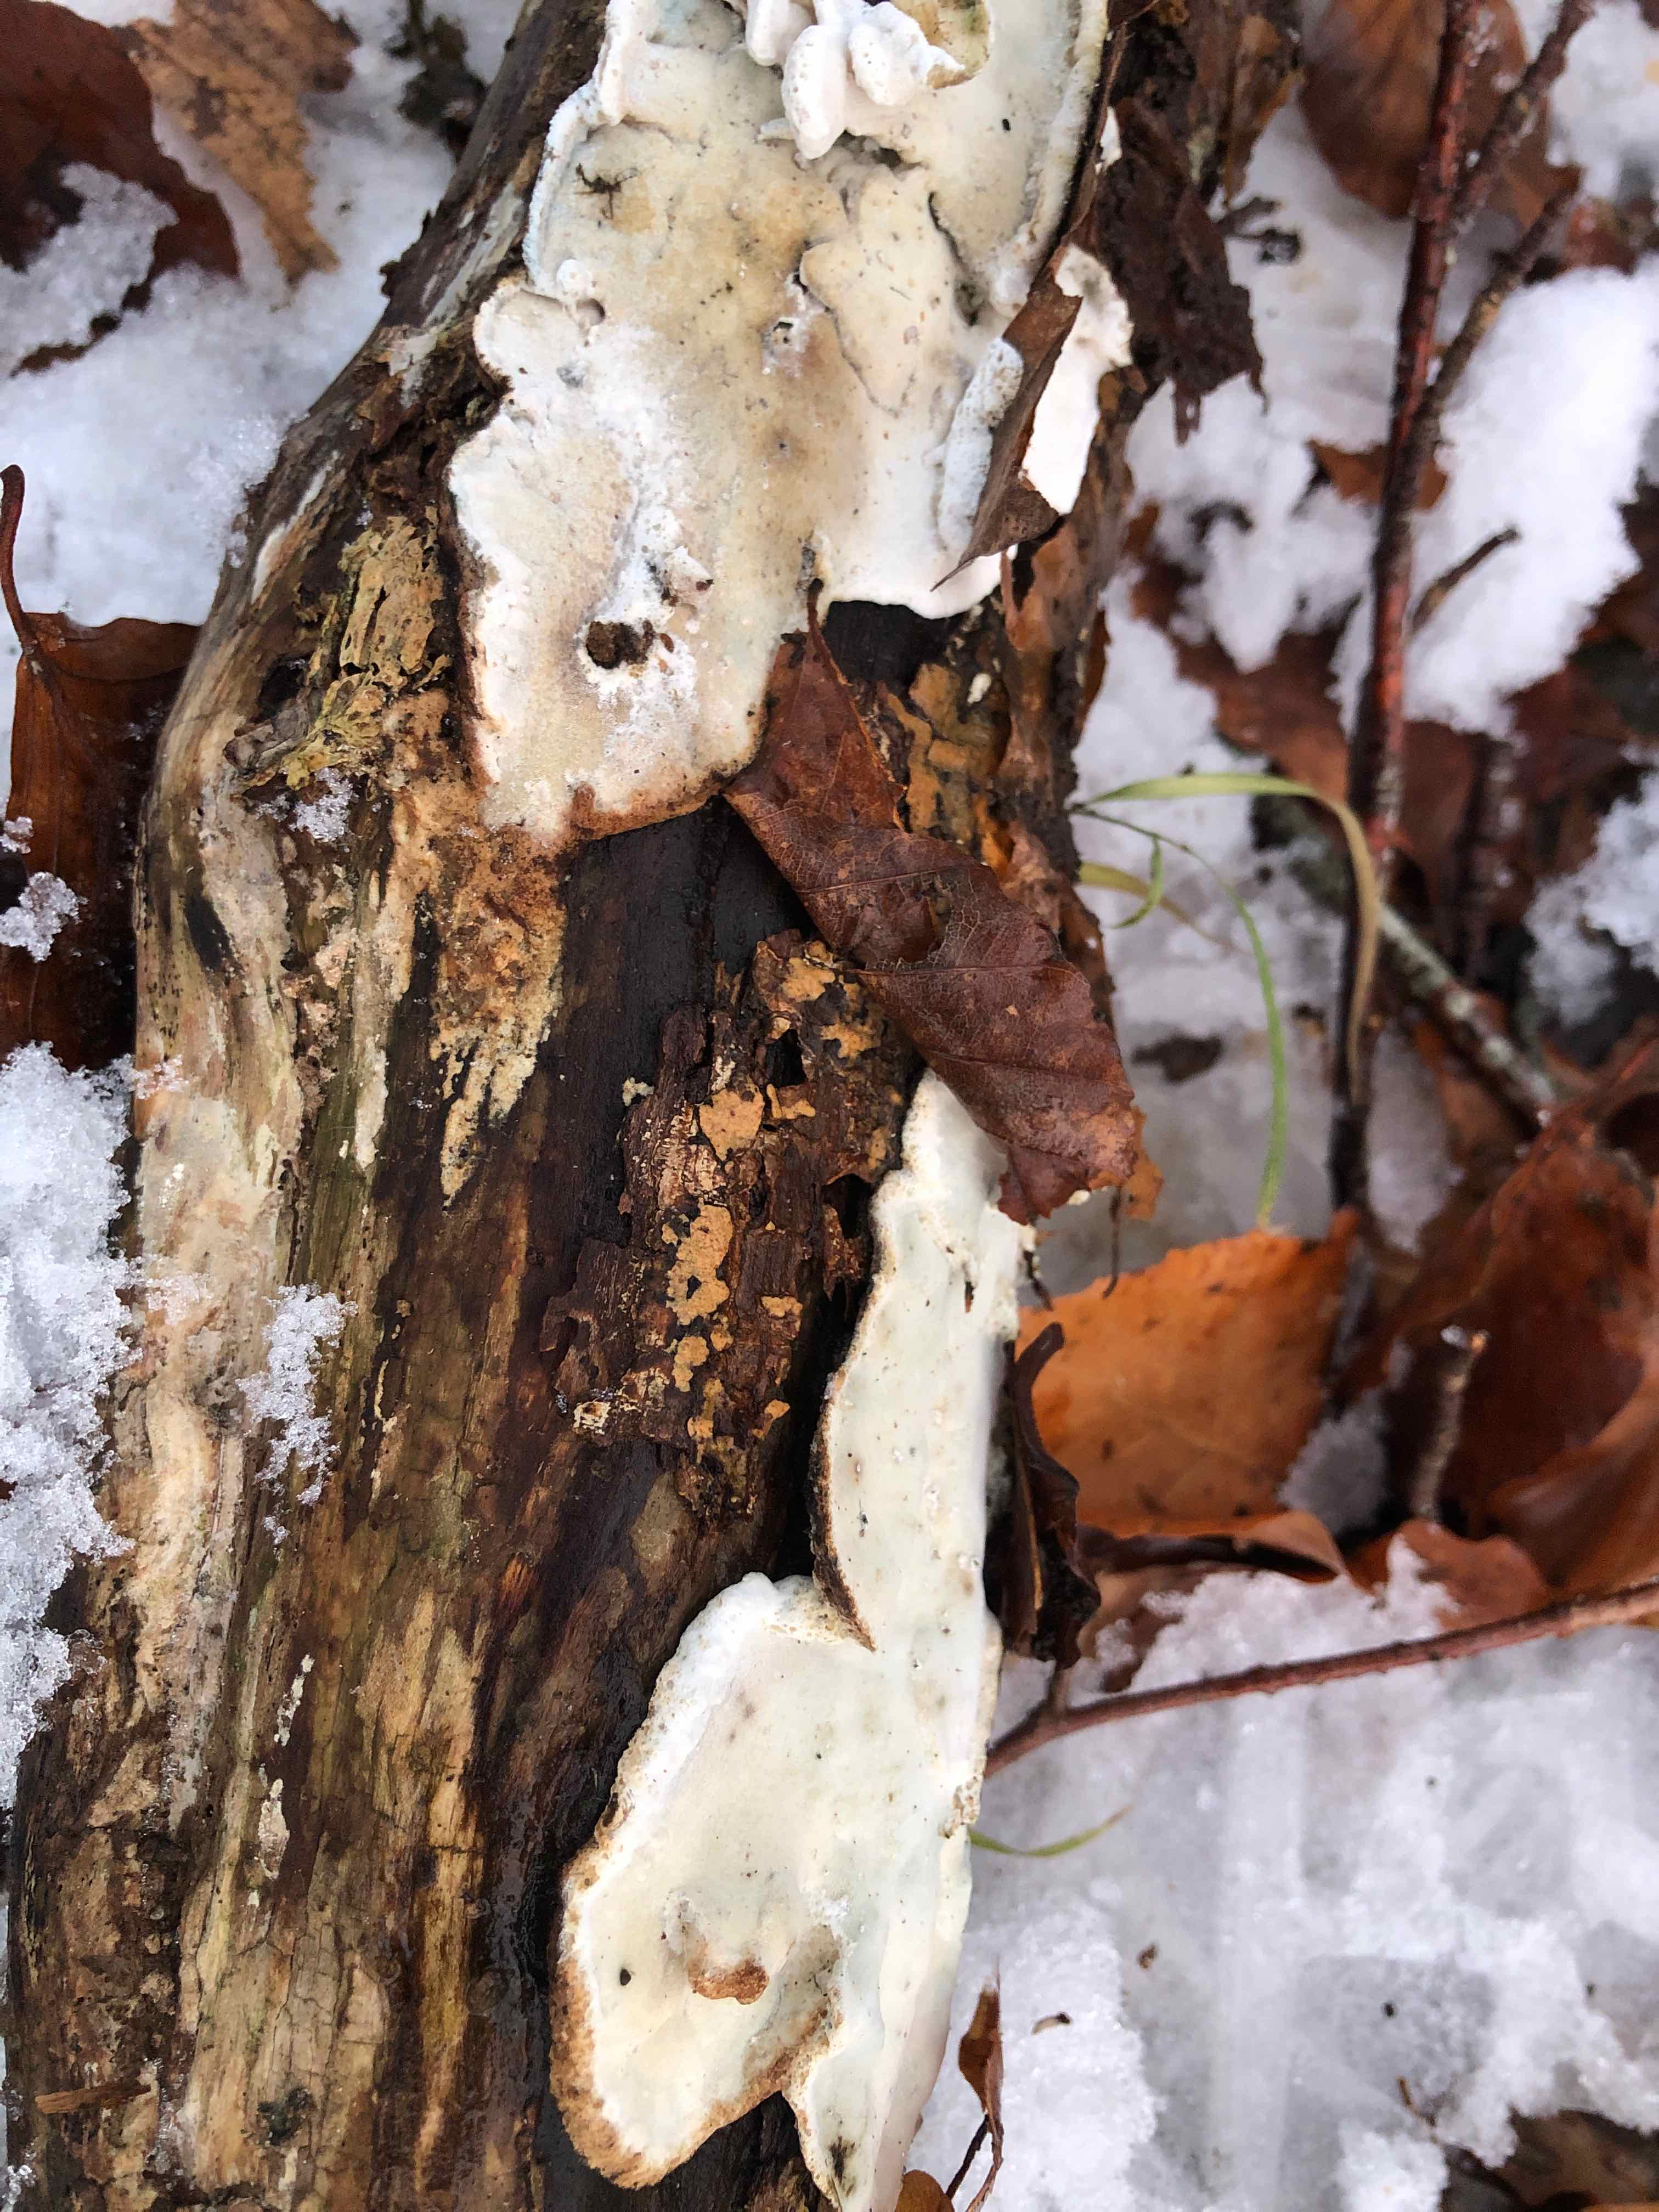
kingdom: Fungi
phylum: Basidiomycota
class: Agaricomycetes
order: Polyporales
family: Incrustoporiaceae
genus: Skeletocutis
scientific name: Skeletocutis nemoralis
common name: stor krystalporesvamp
